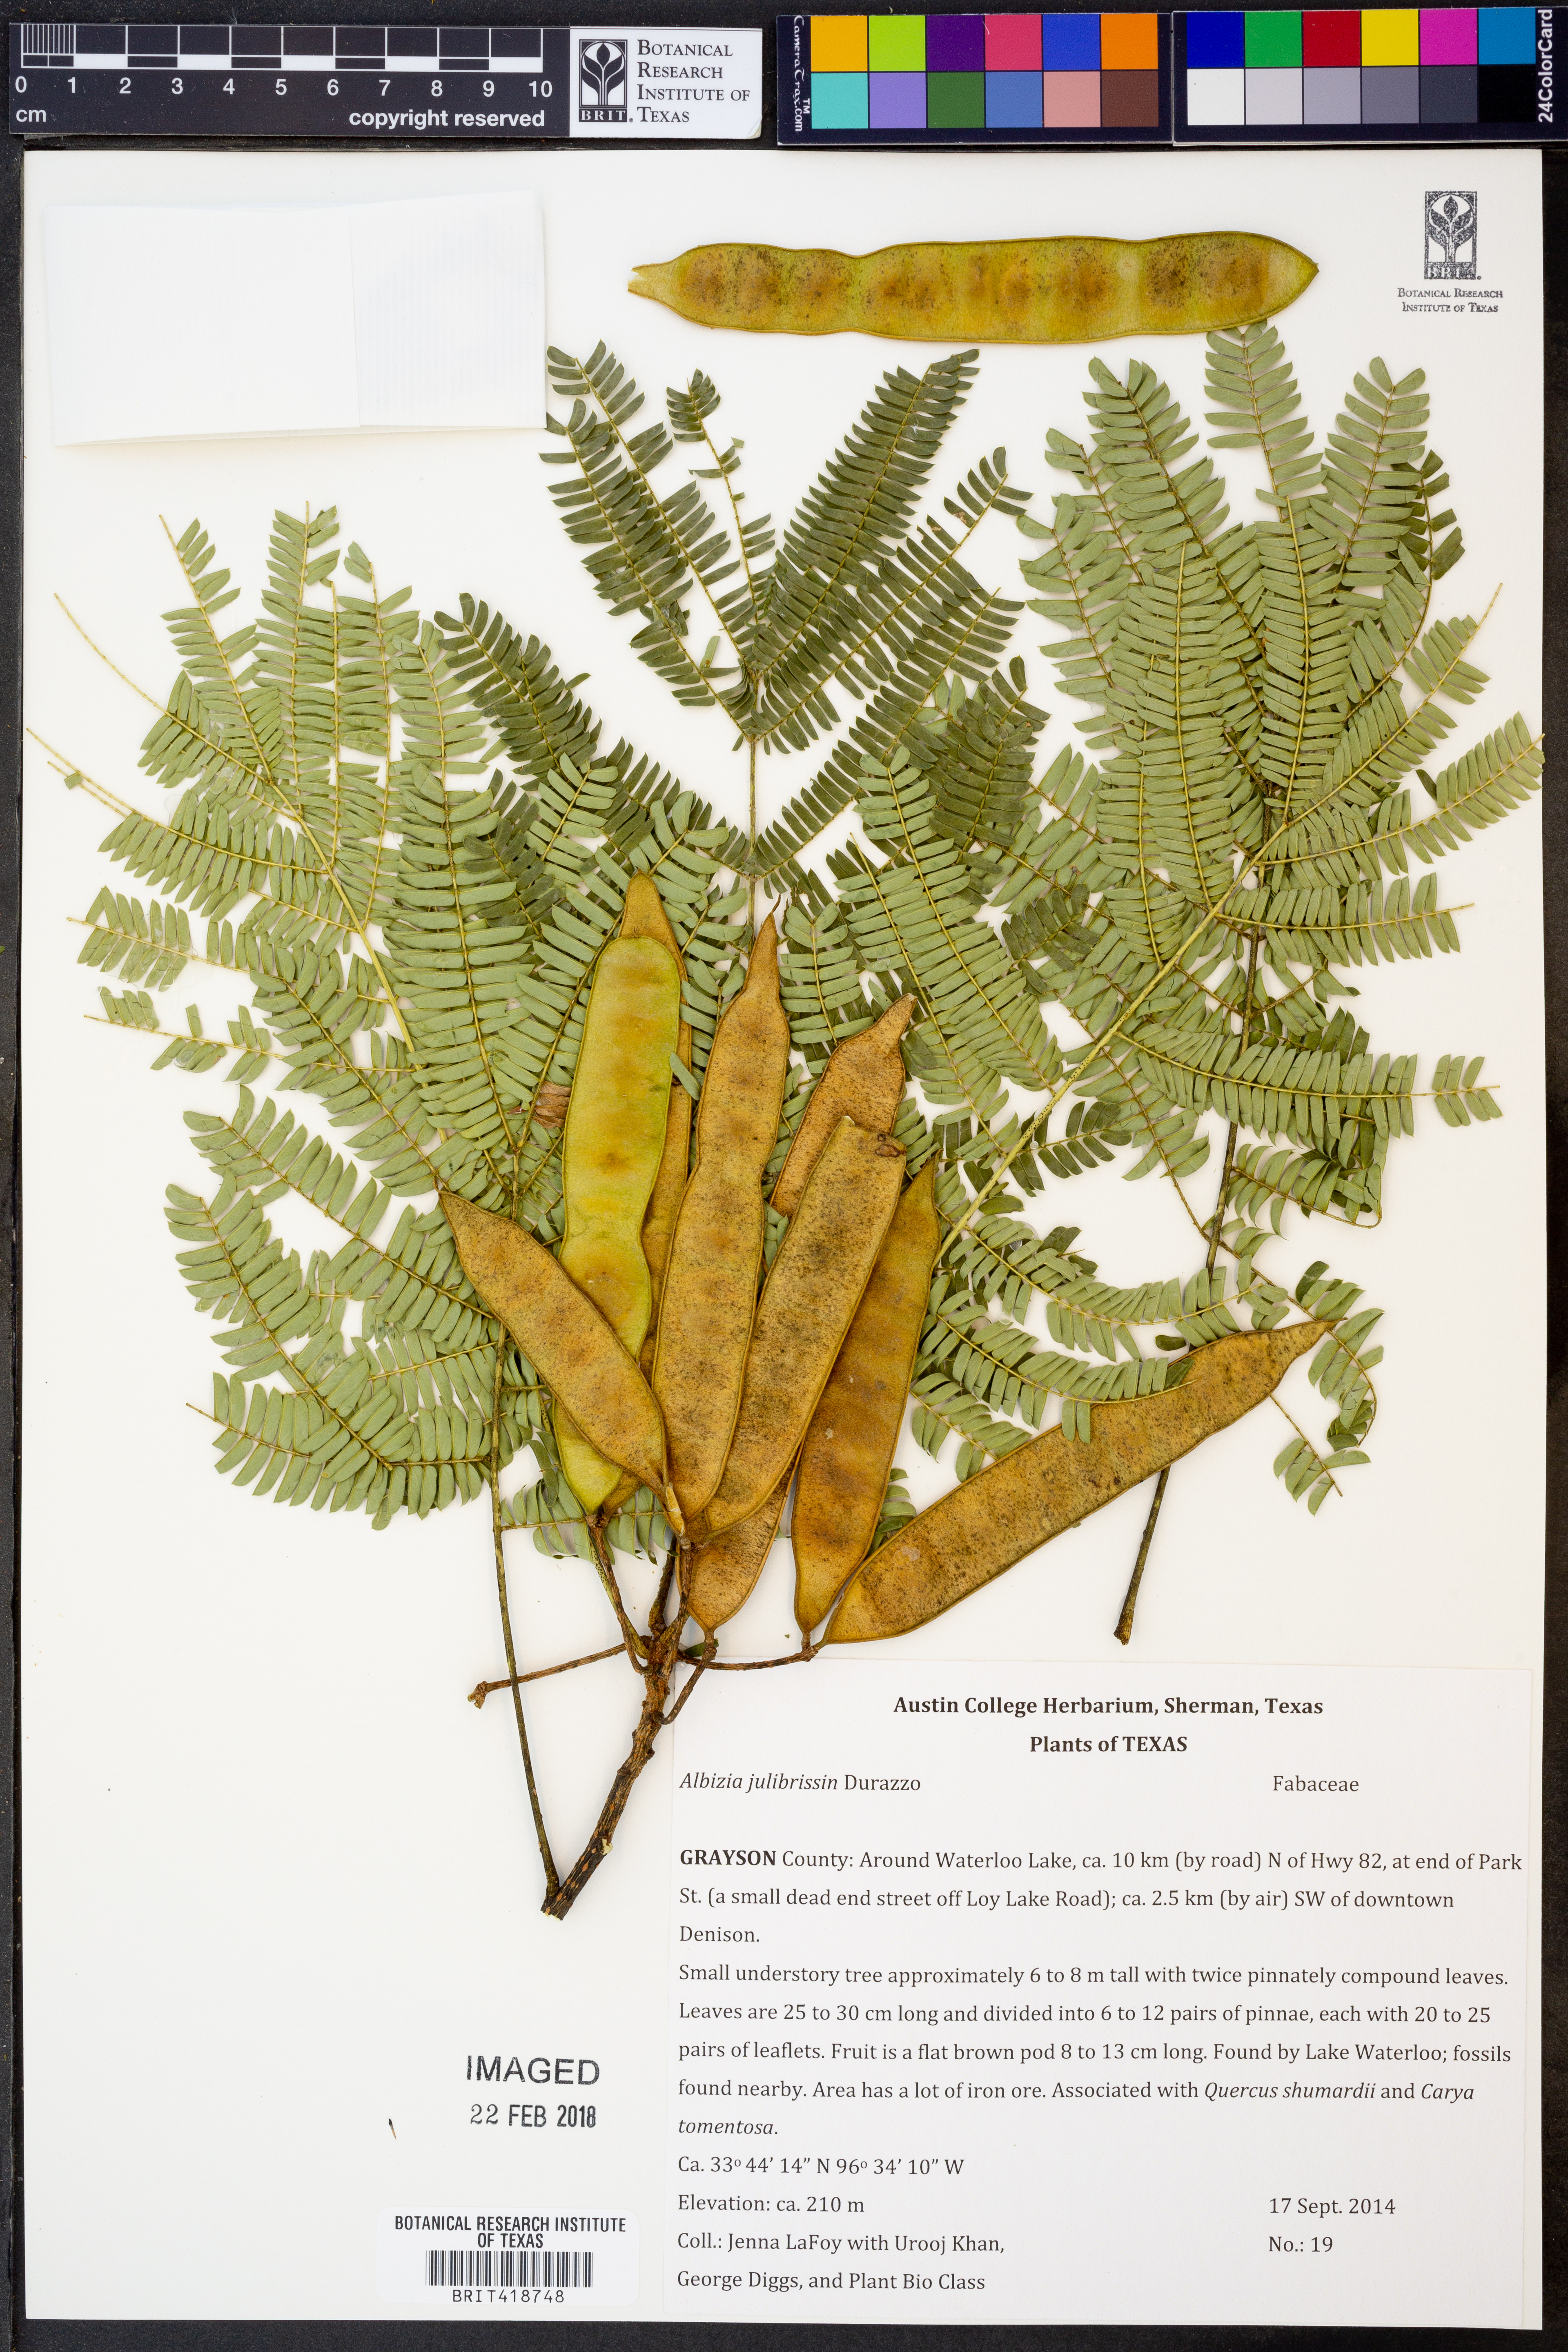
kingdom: Plantae
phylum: Tracheophyta
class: Magnoliopsida
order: Fabales
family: Fabaceae
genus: Albizia
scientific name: Albizia julibrissin
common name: Silktree
